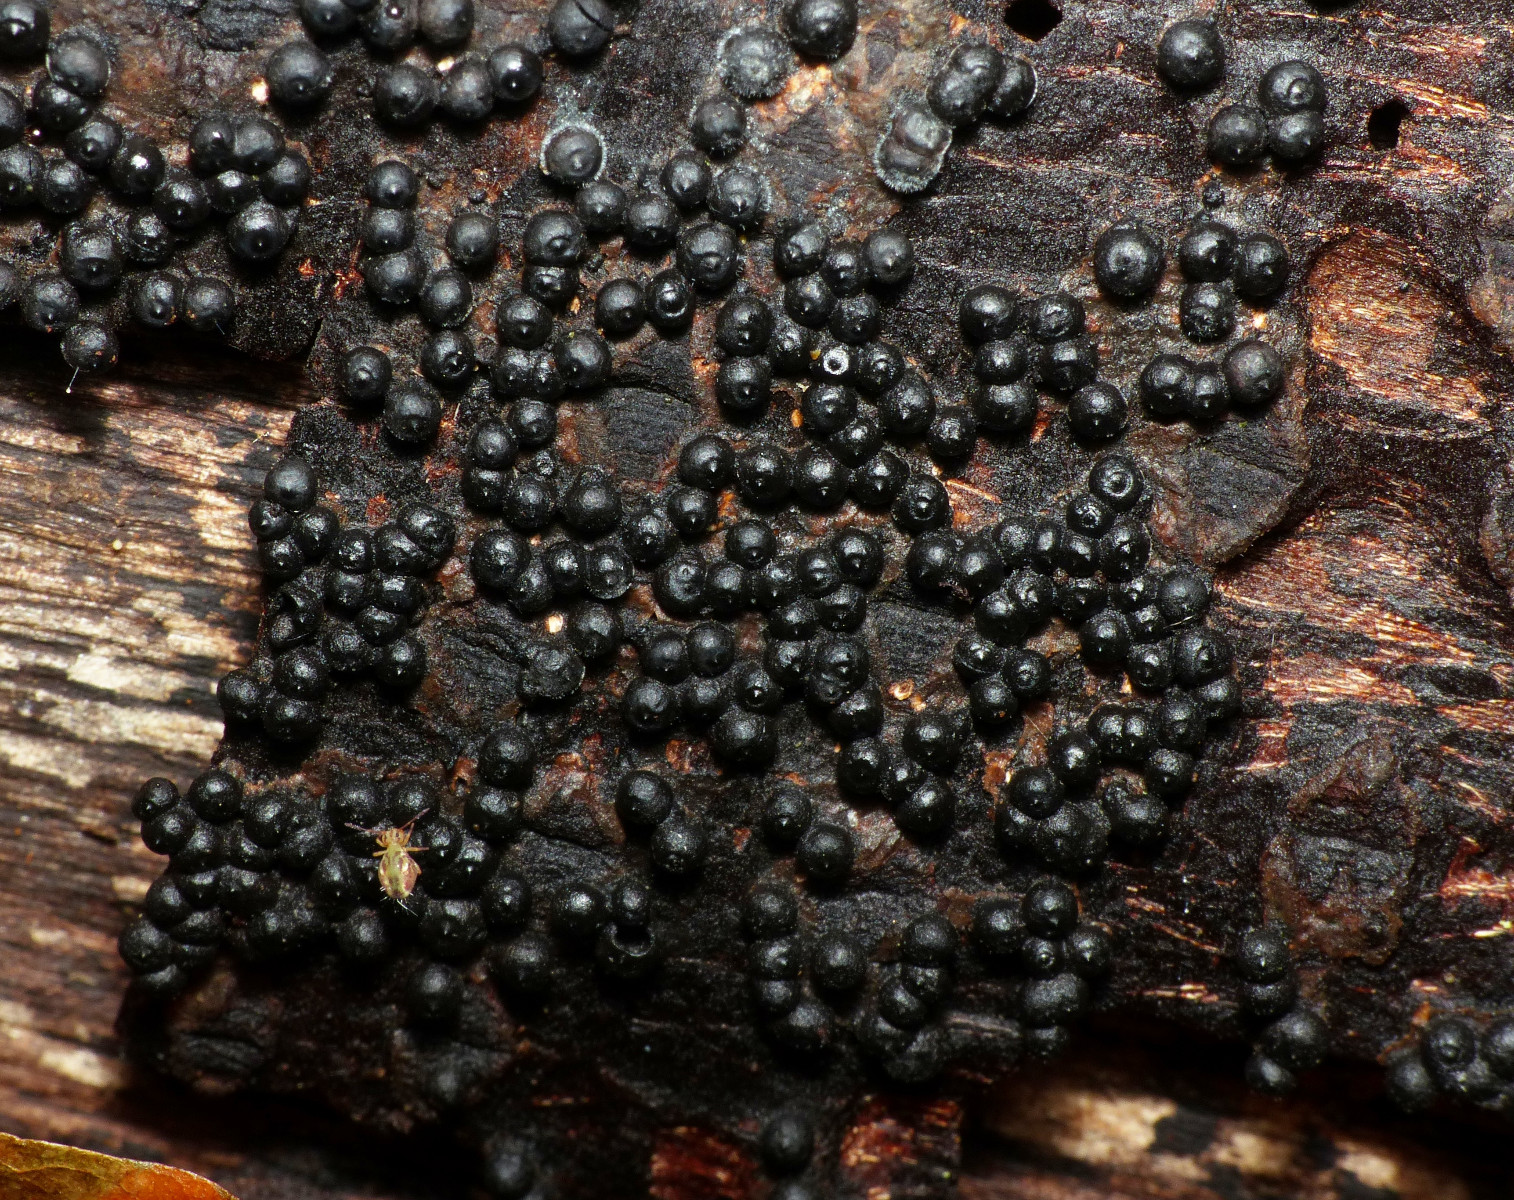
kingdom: Fungi
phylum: Ascomycota
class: Sordariomycetes
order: Xylariales
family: Xylariaceae
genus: Rosellinia
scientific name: Rosellinia corticium
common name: måtte-kulkaviar
